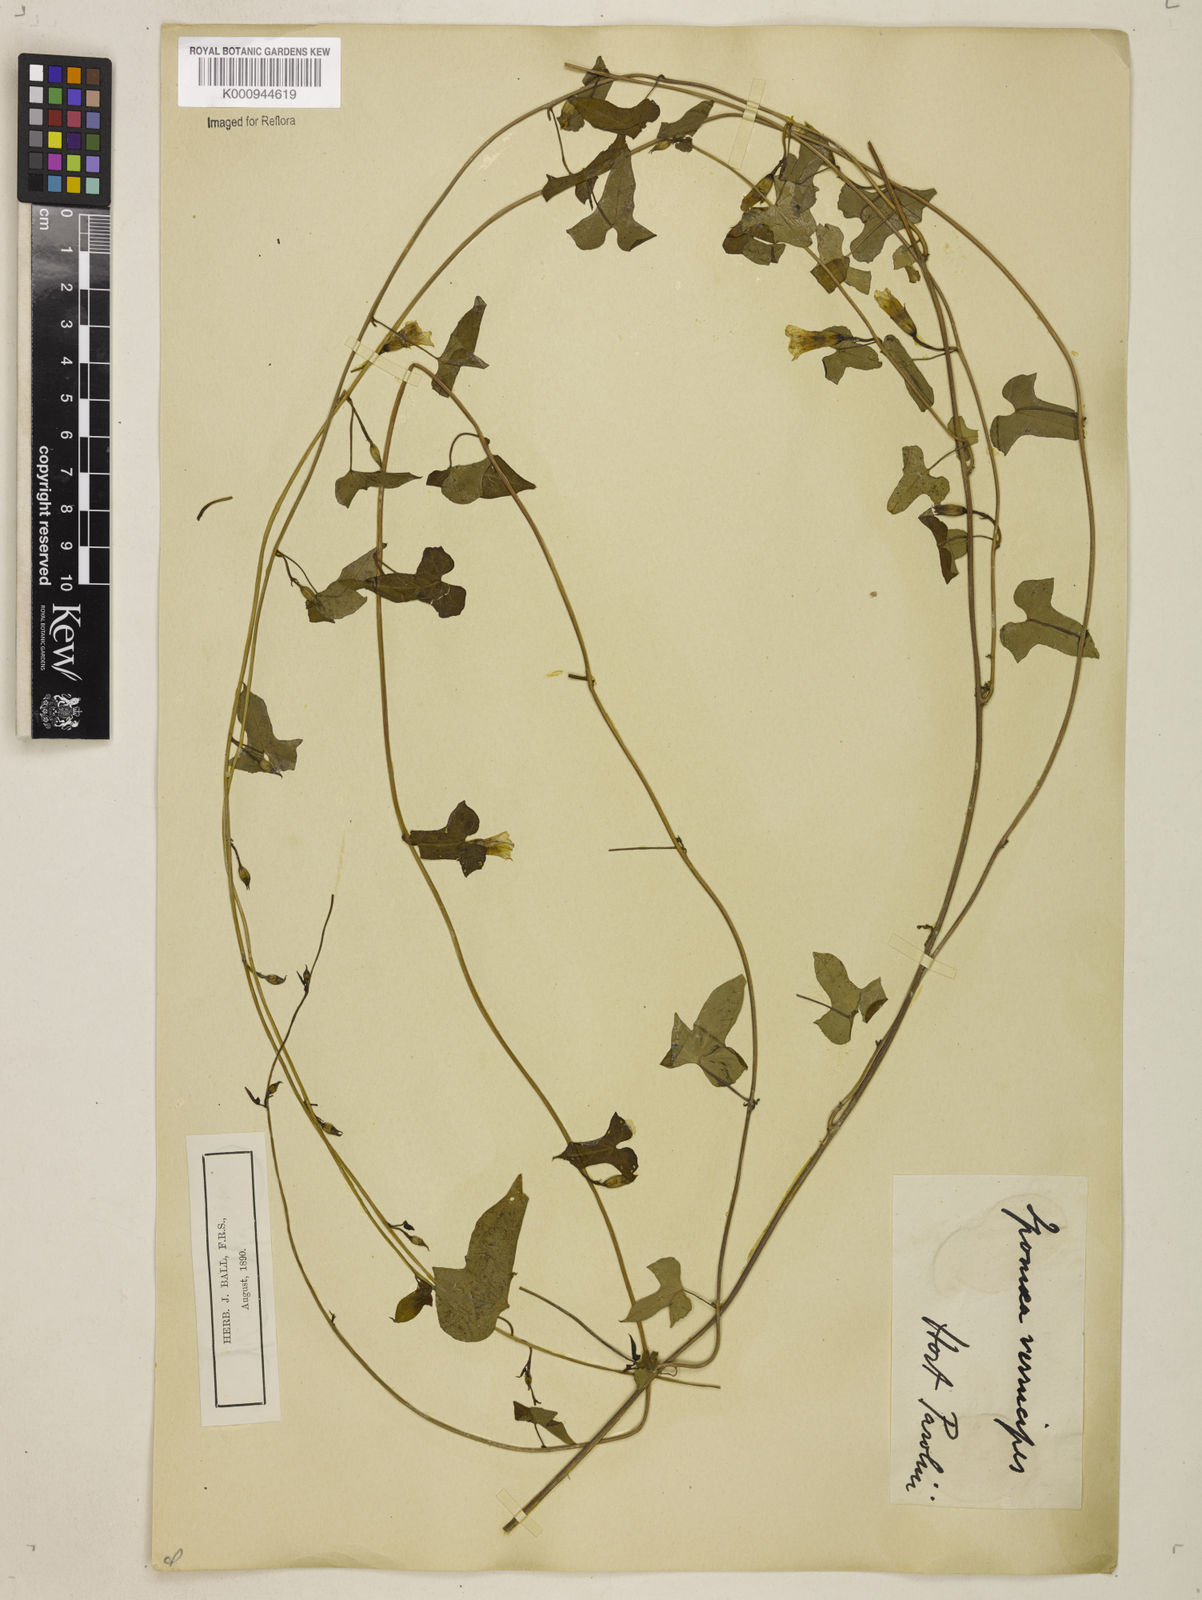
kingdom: Plantae
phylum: Tracheophyta
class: Magnoliopsida
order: Solanales
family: Convolvulaceae
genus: Ipomoea
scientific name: Ipomoea lacunosa
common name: White morning-glory
